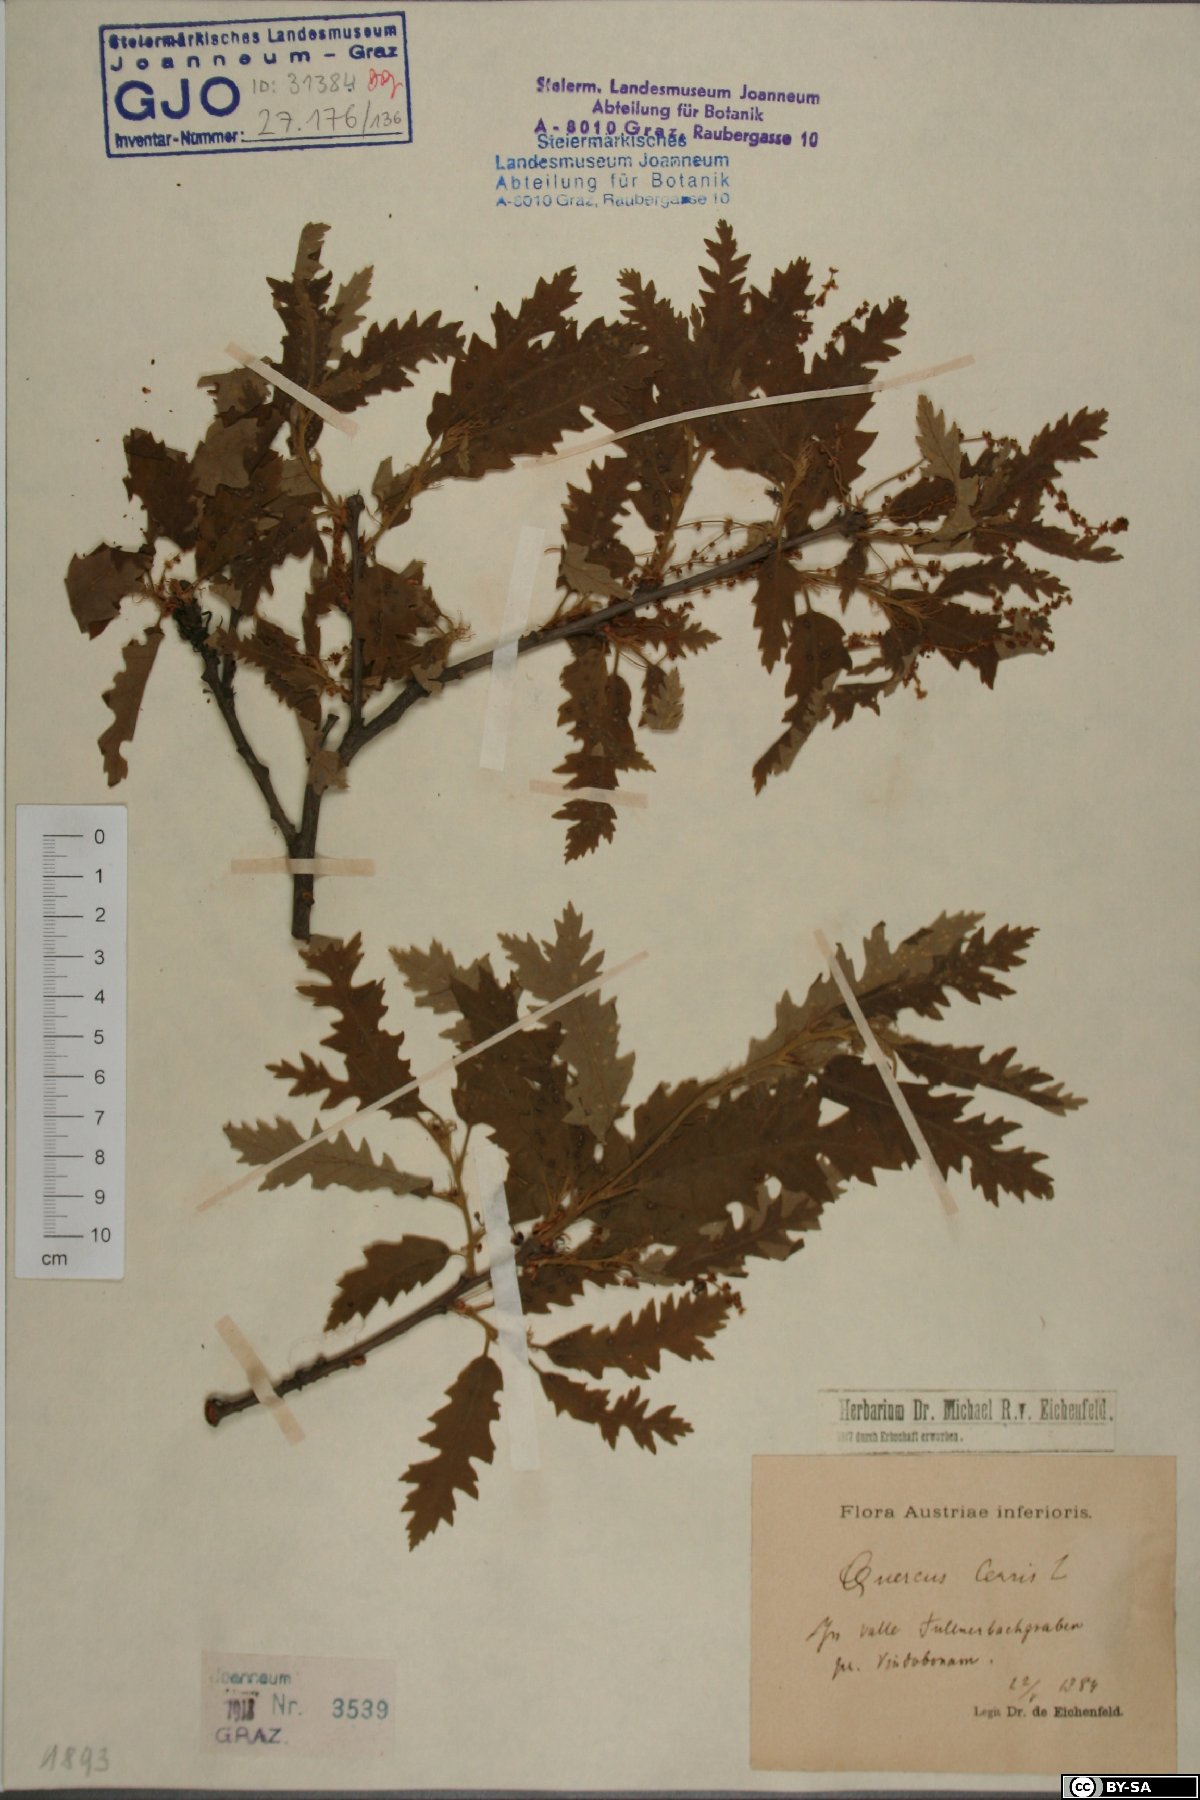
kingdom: Plantae
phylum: Tracheophyta
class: Magnoliopsida
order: Fagales
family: Fagaceae
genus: Quercus
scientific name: Quercus cerris
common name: Turkey oak
